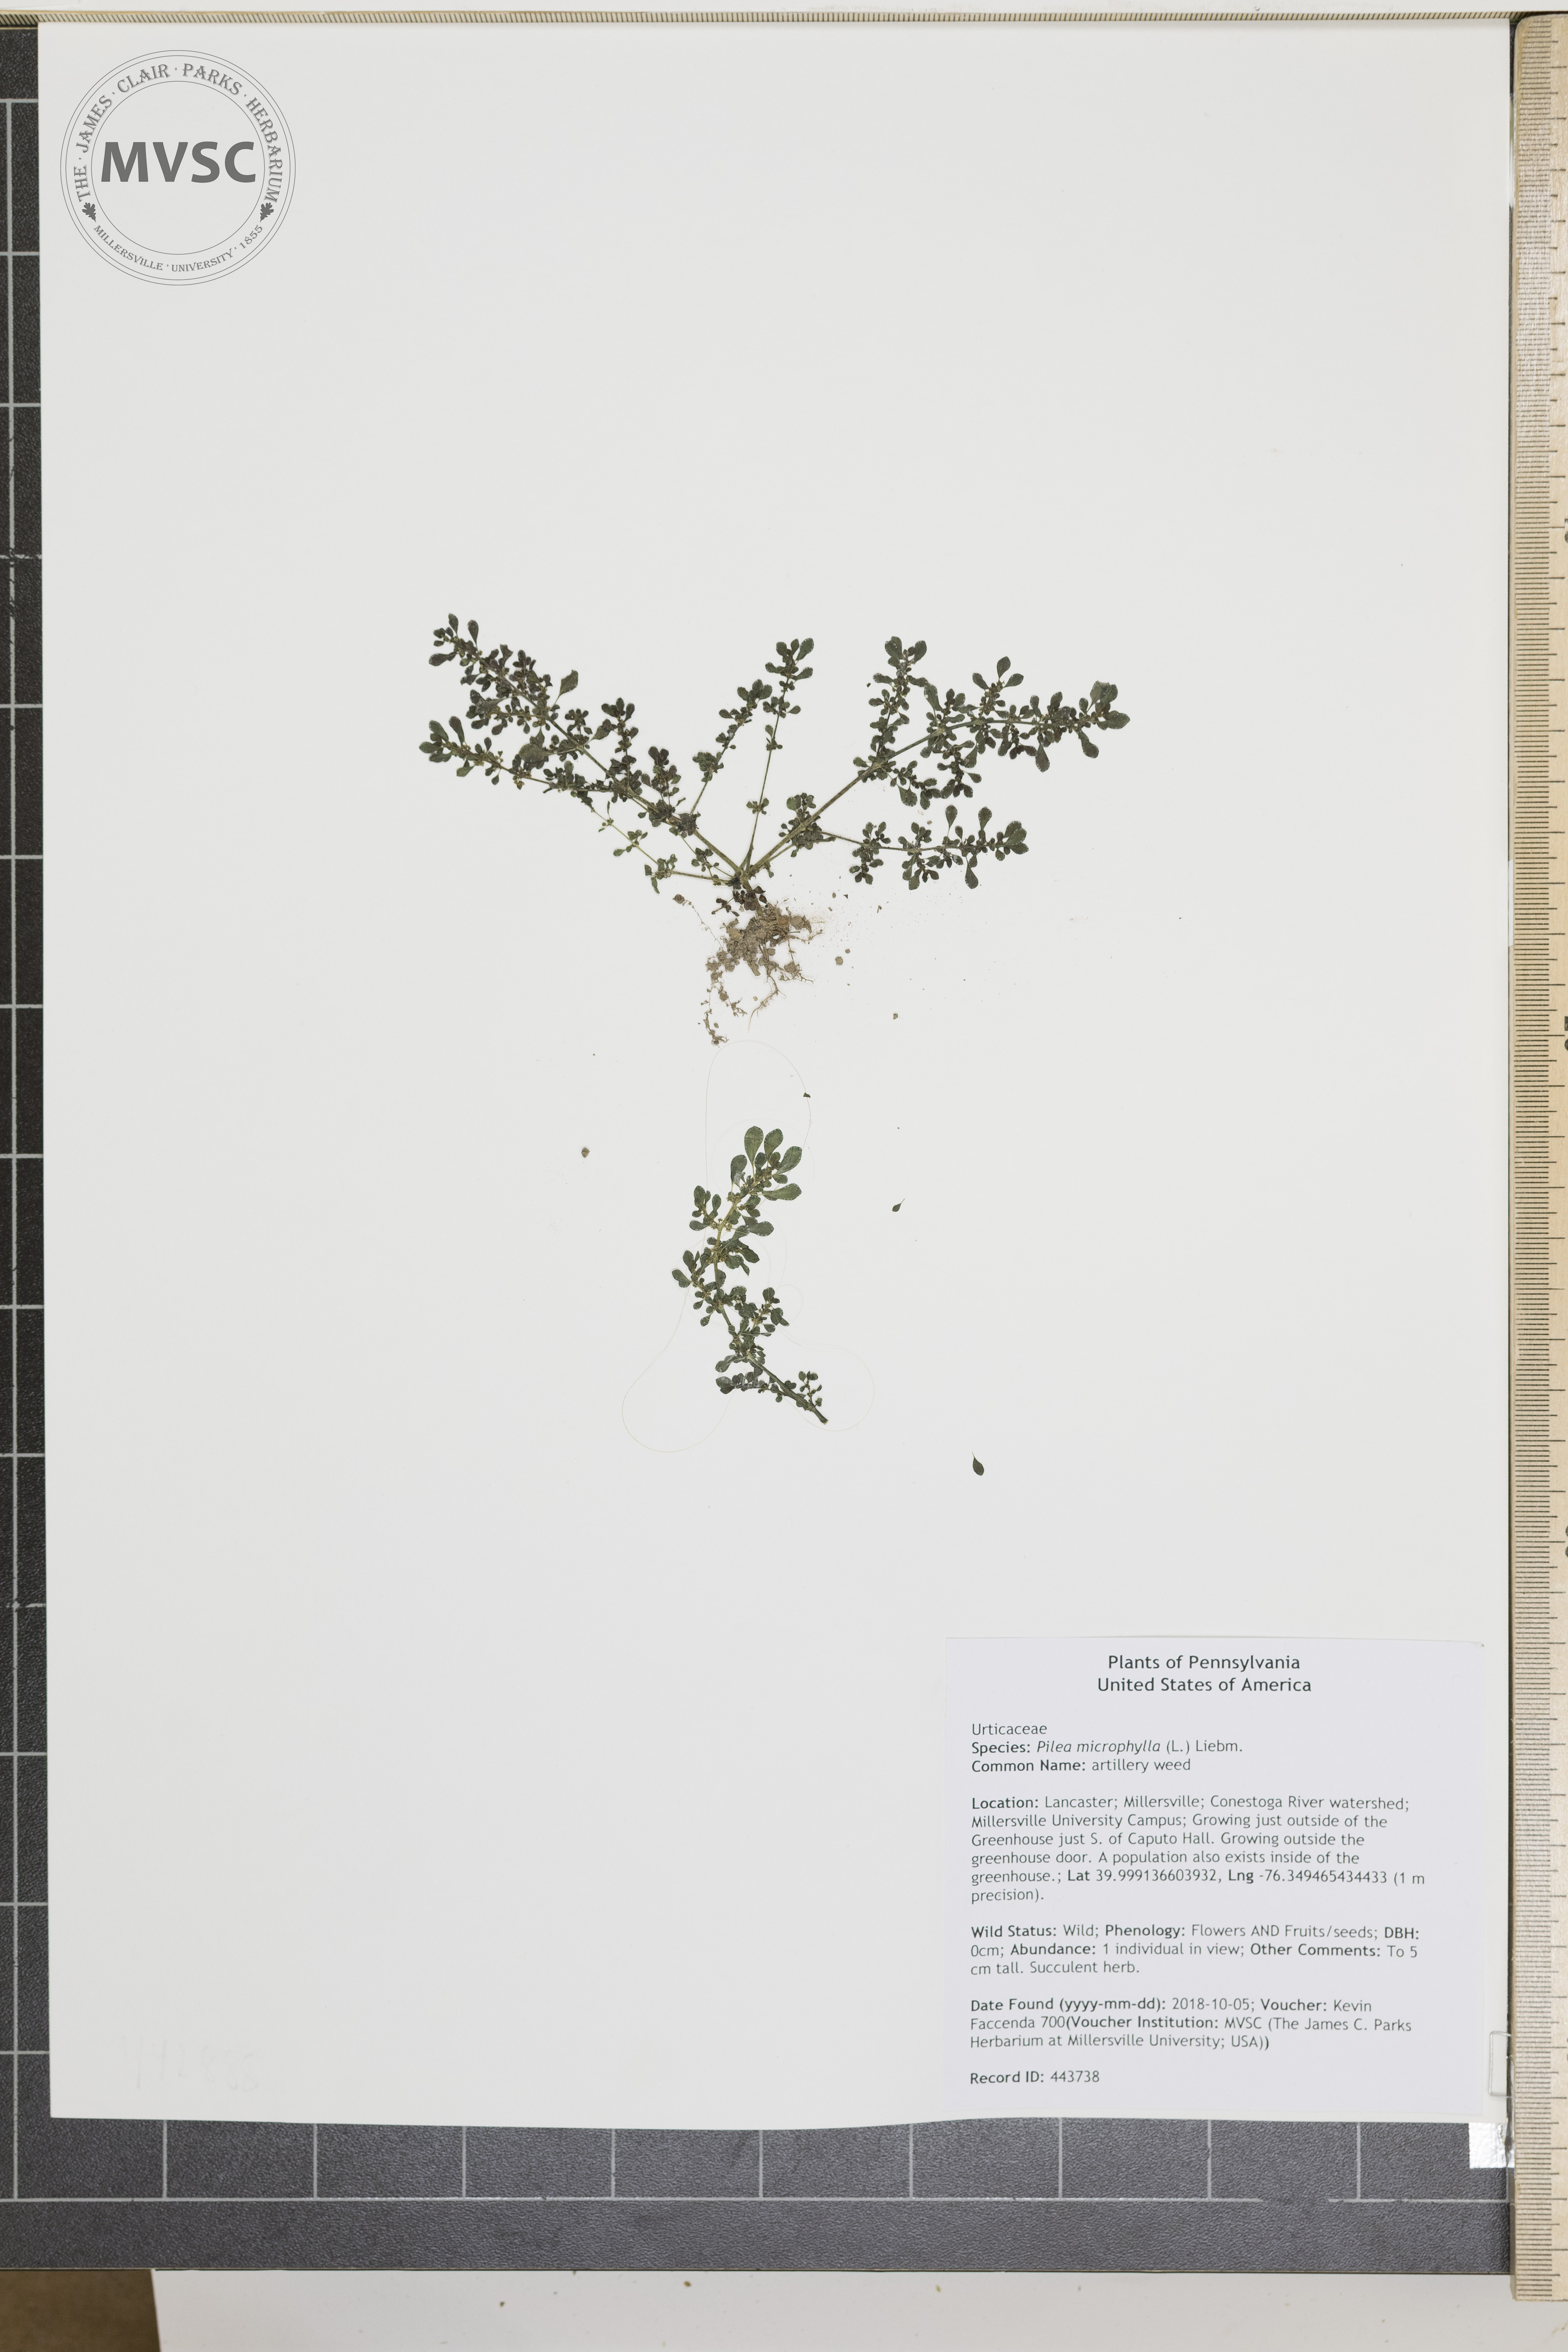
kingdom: Plantae
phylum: Tracheophyta
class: Magnoliopsida
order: Rosales
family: Urticaceae
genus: Pilea
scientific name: Pilea microphylla
